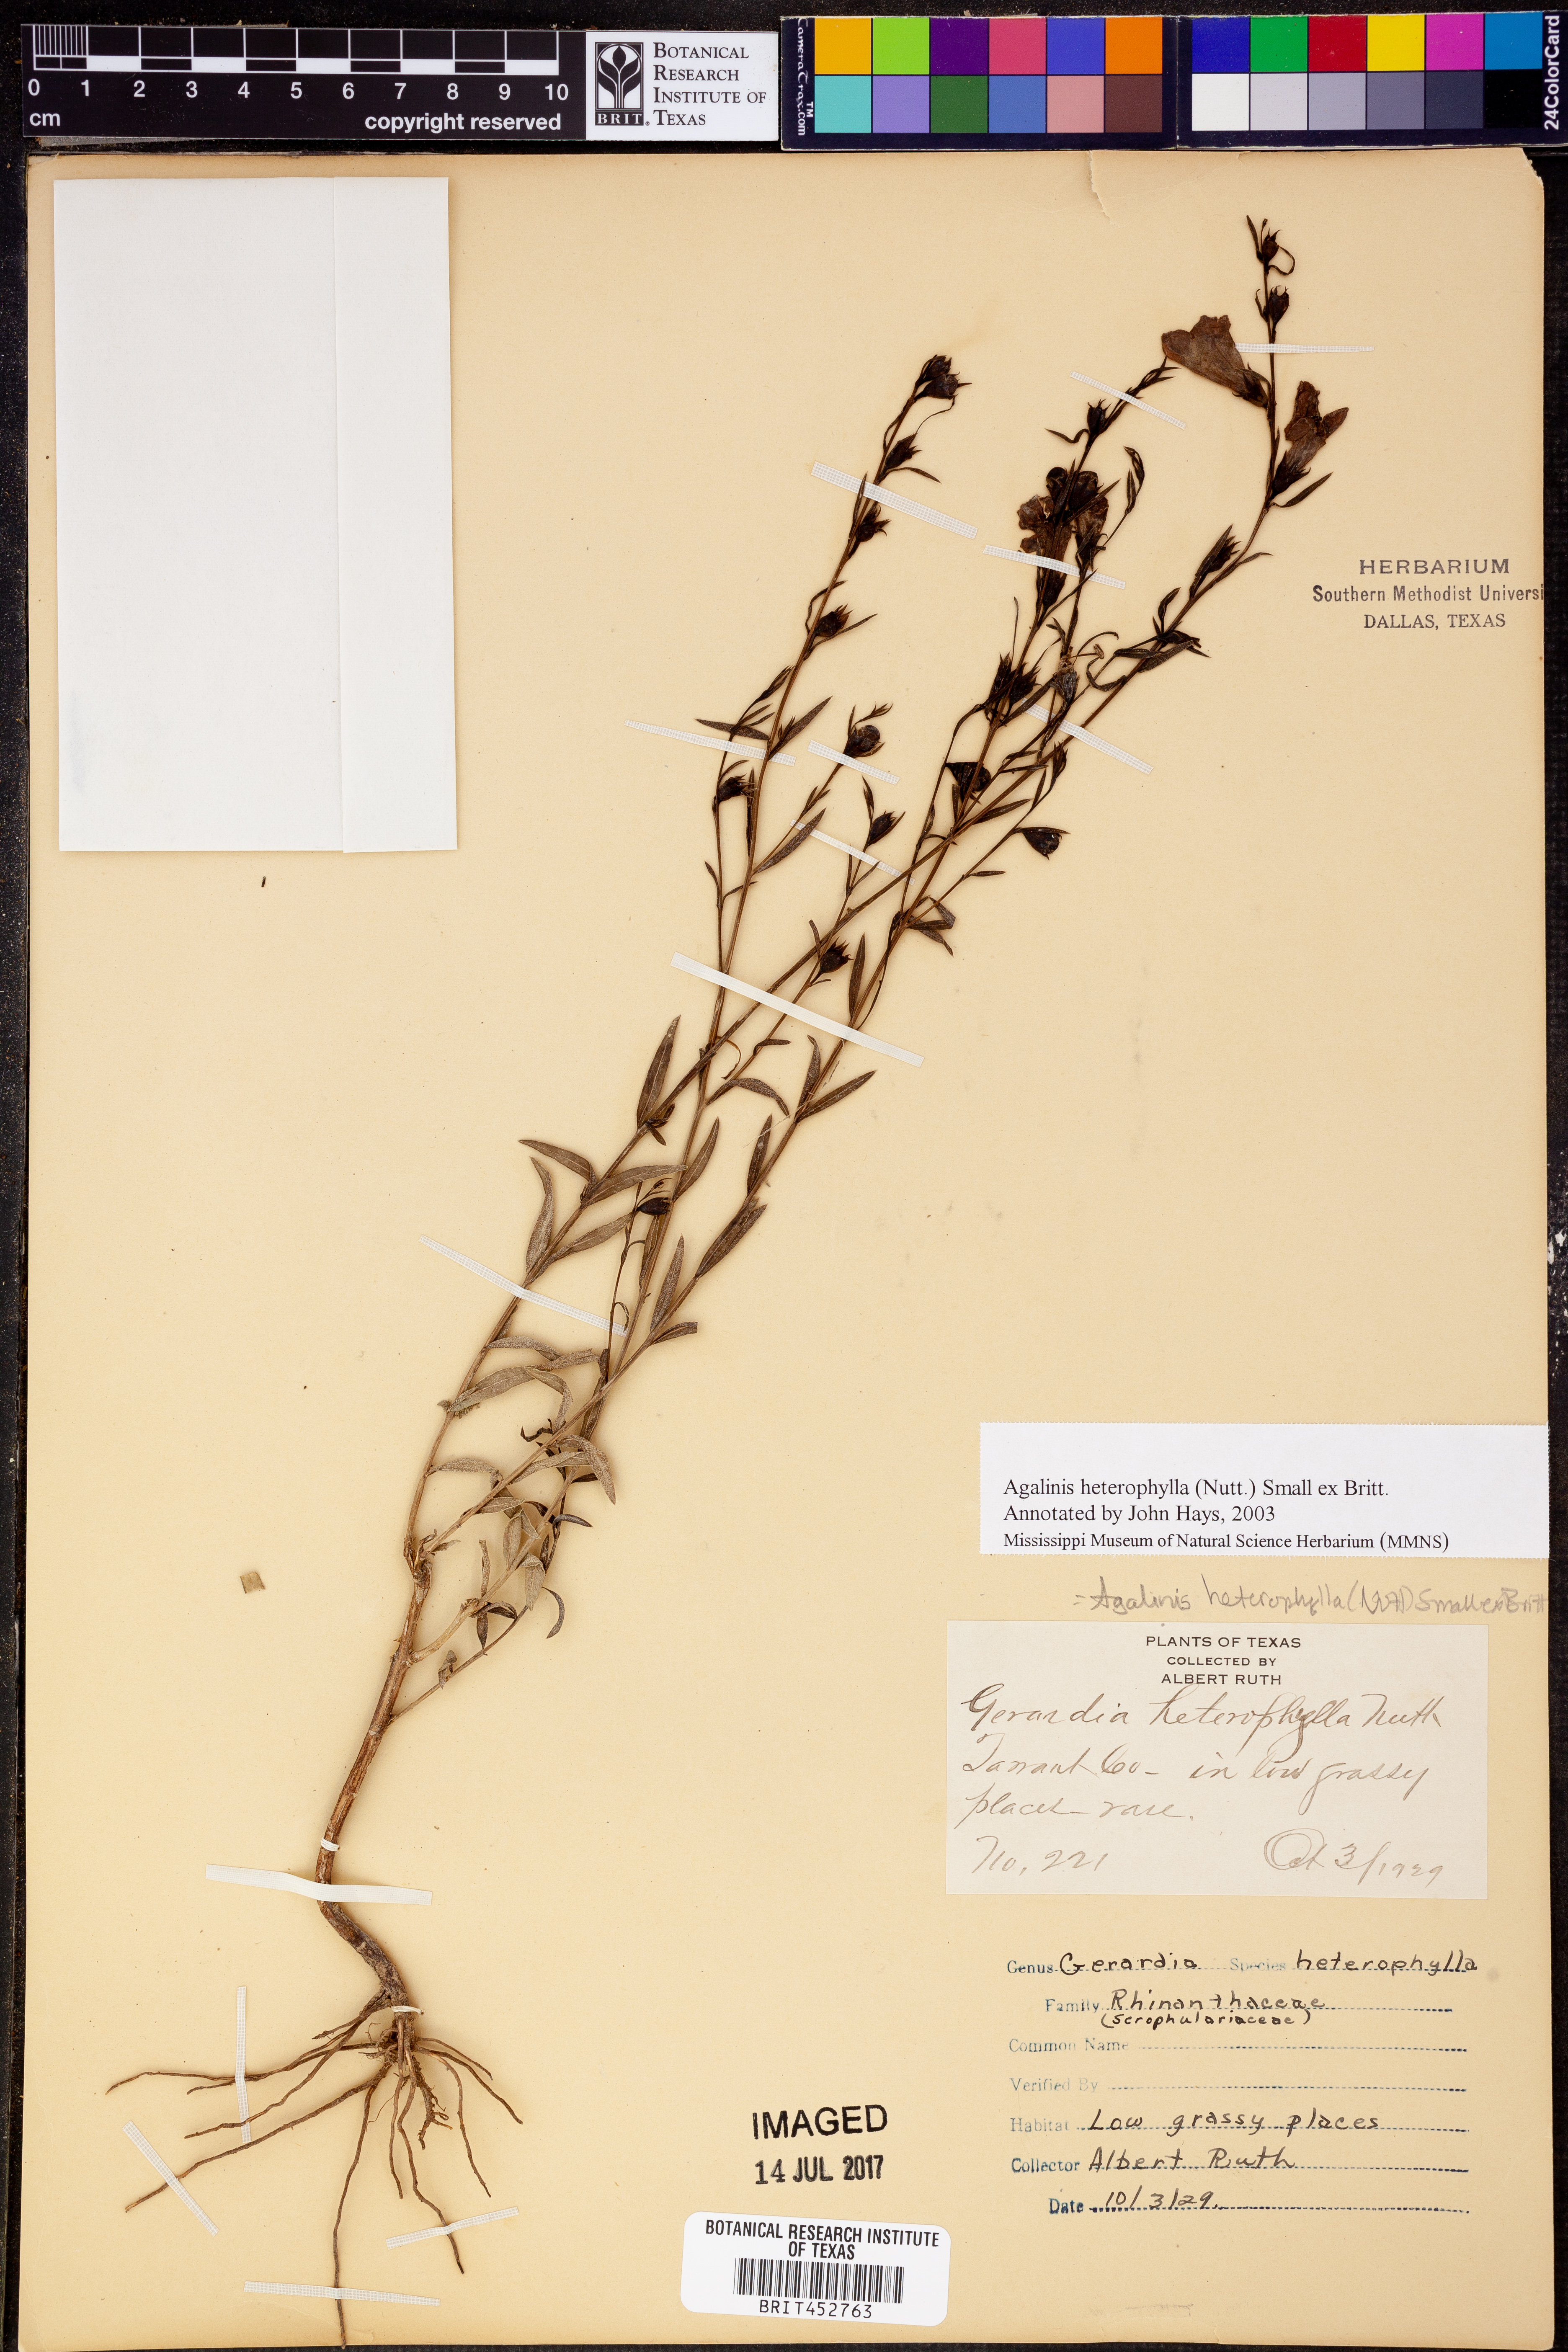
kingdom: Plantae
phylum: Tracheophyta
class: Magnoliopsida
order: Lamiales
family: Orobanchaceae
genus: Agalinis
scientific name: Agalinis heterophylla
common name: Prairie agalinis
